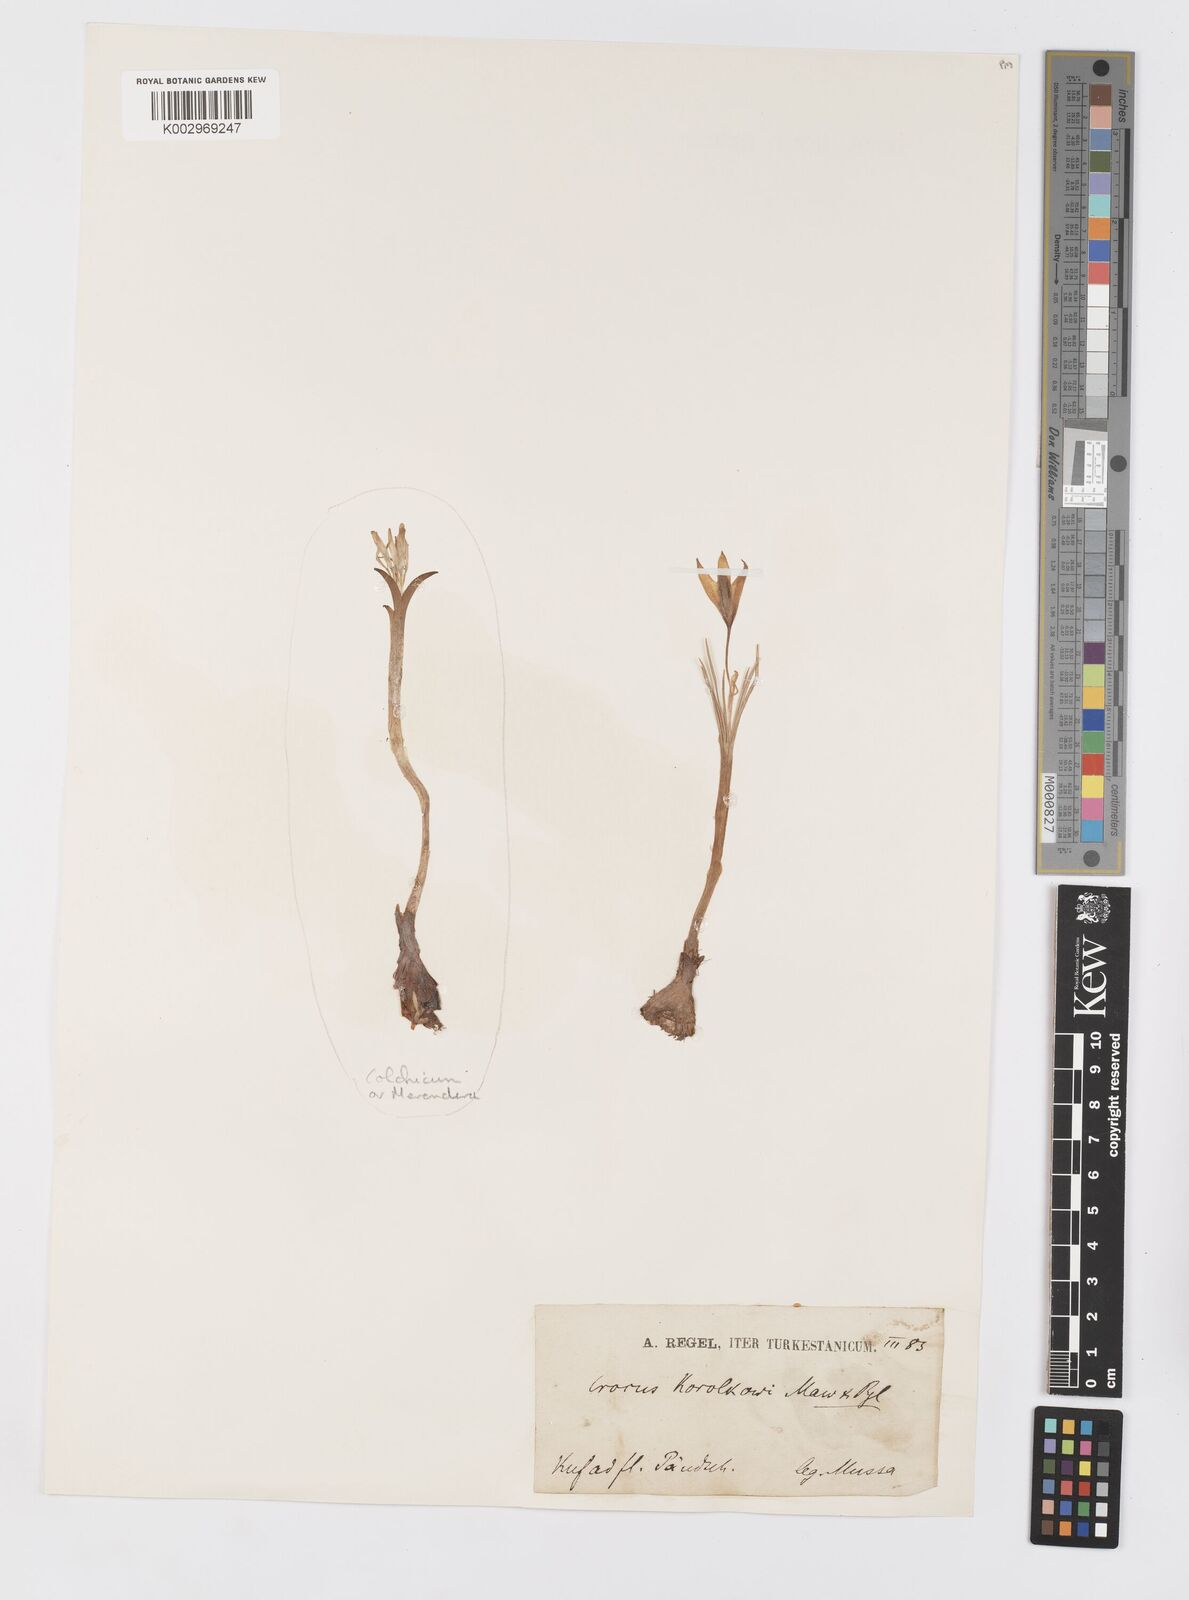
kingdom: Plantae
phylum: Tracheophyta
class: Liliopsida
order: Asparagales
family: Iridaceae
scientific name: Iridaceae
